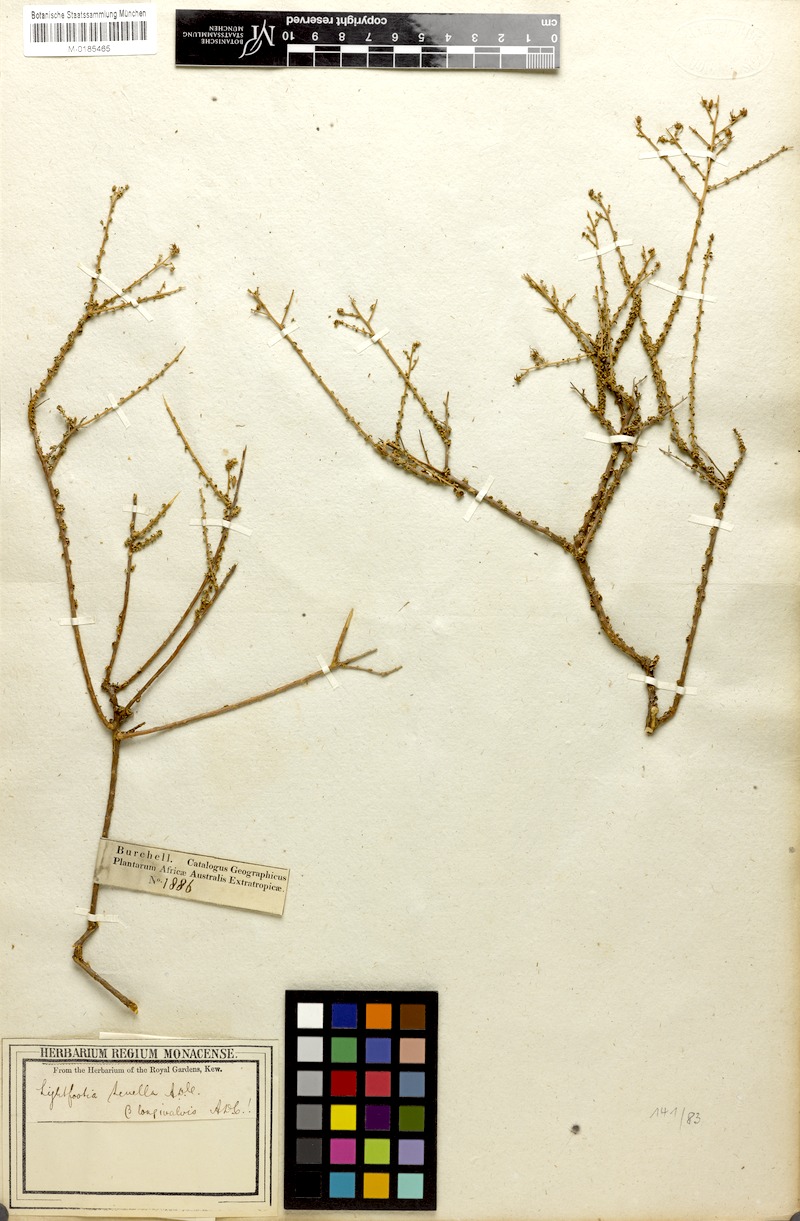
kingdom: Plantae
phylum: Tracheophyta
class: Magnoliopsida
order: Asterales
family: Campanulaceae
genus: Wahlenbergia
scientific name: Wahlenbergia nodosa
